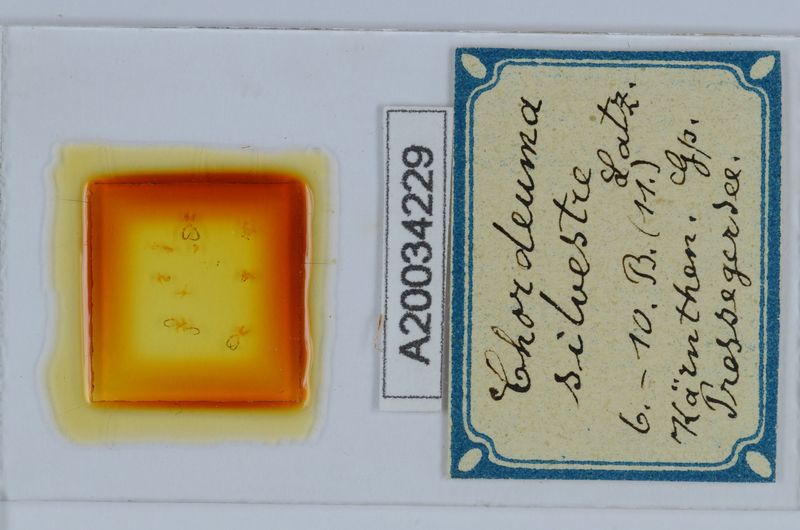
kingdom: Animalia
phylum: Arthropoda
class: Diplopoda
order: Chordeumatida
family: Chordeumatidae
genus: Chordeuma
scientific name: Chordeuma sylvestre
